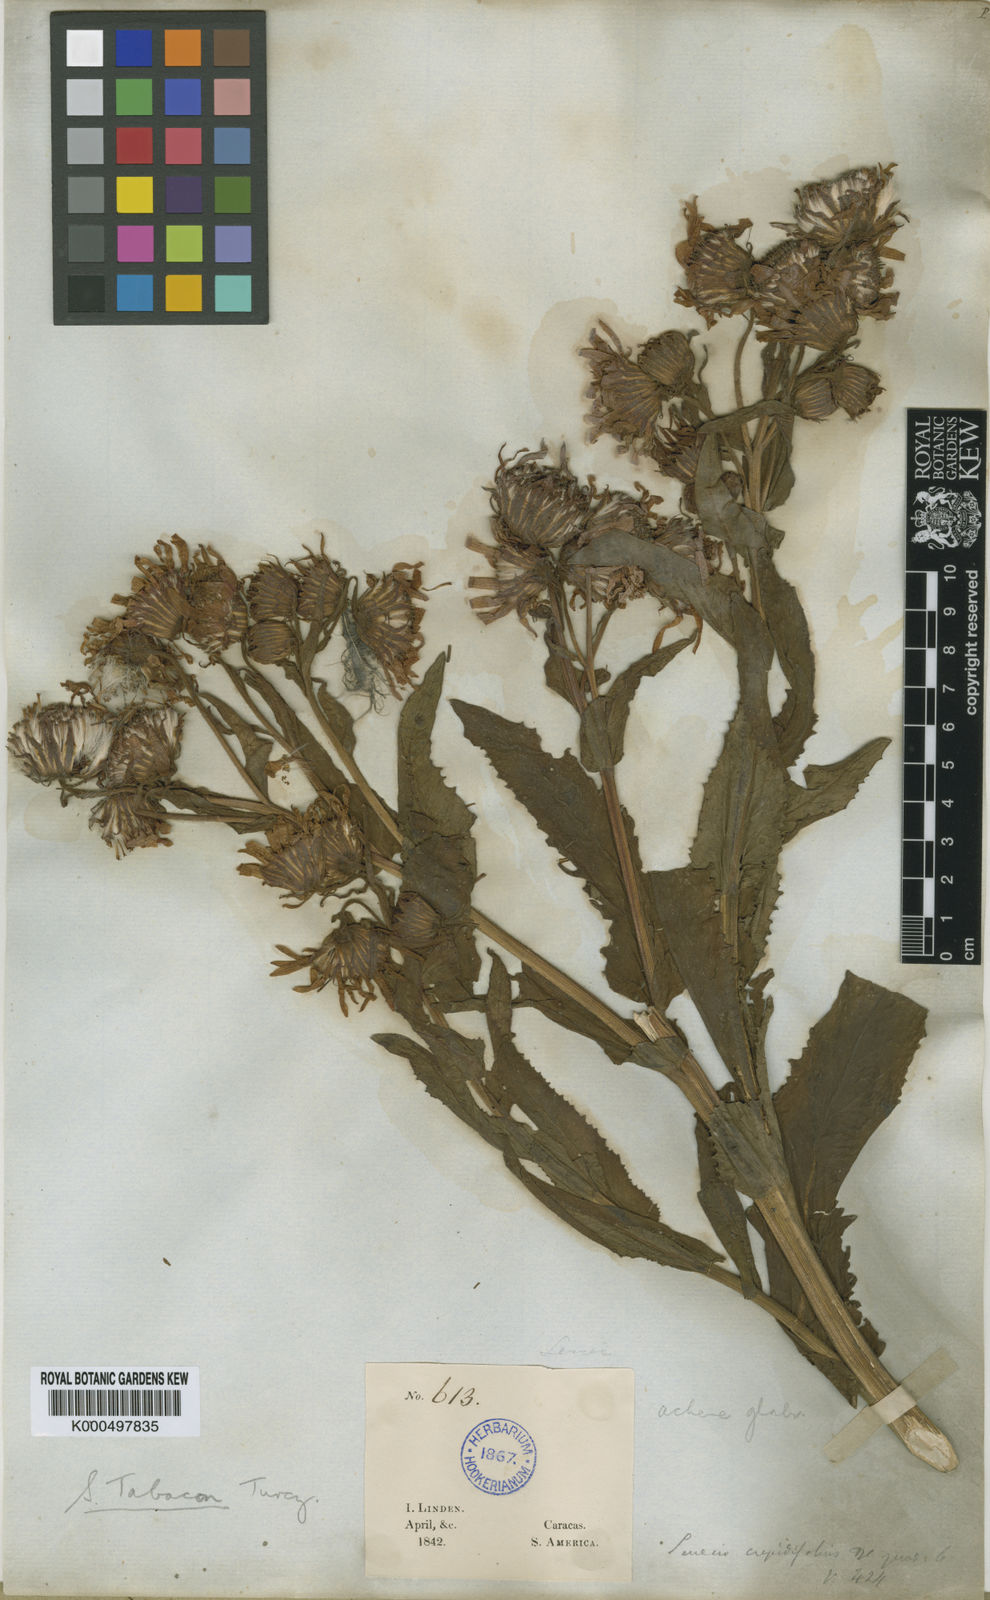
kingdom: Plantae
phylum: Tracheophyta
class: Magnoliopsida
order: Asterales
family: Asteraceae
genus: Senecio
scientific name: Senecio formosus
